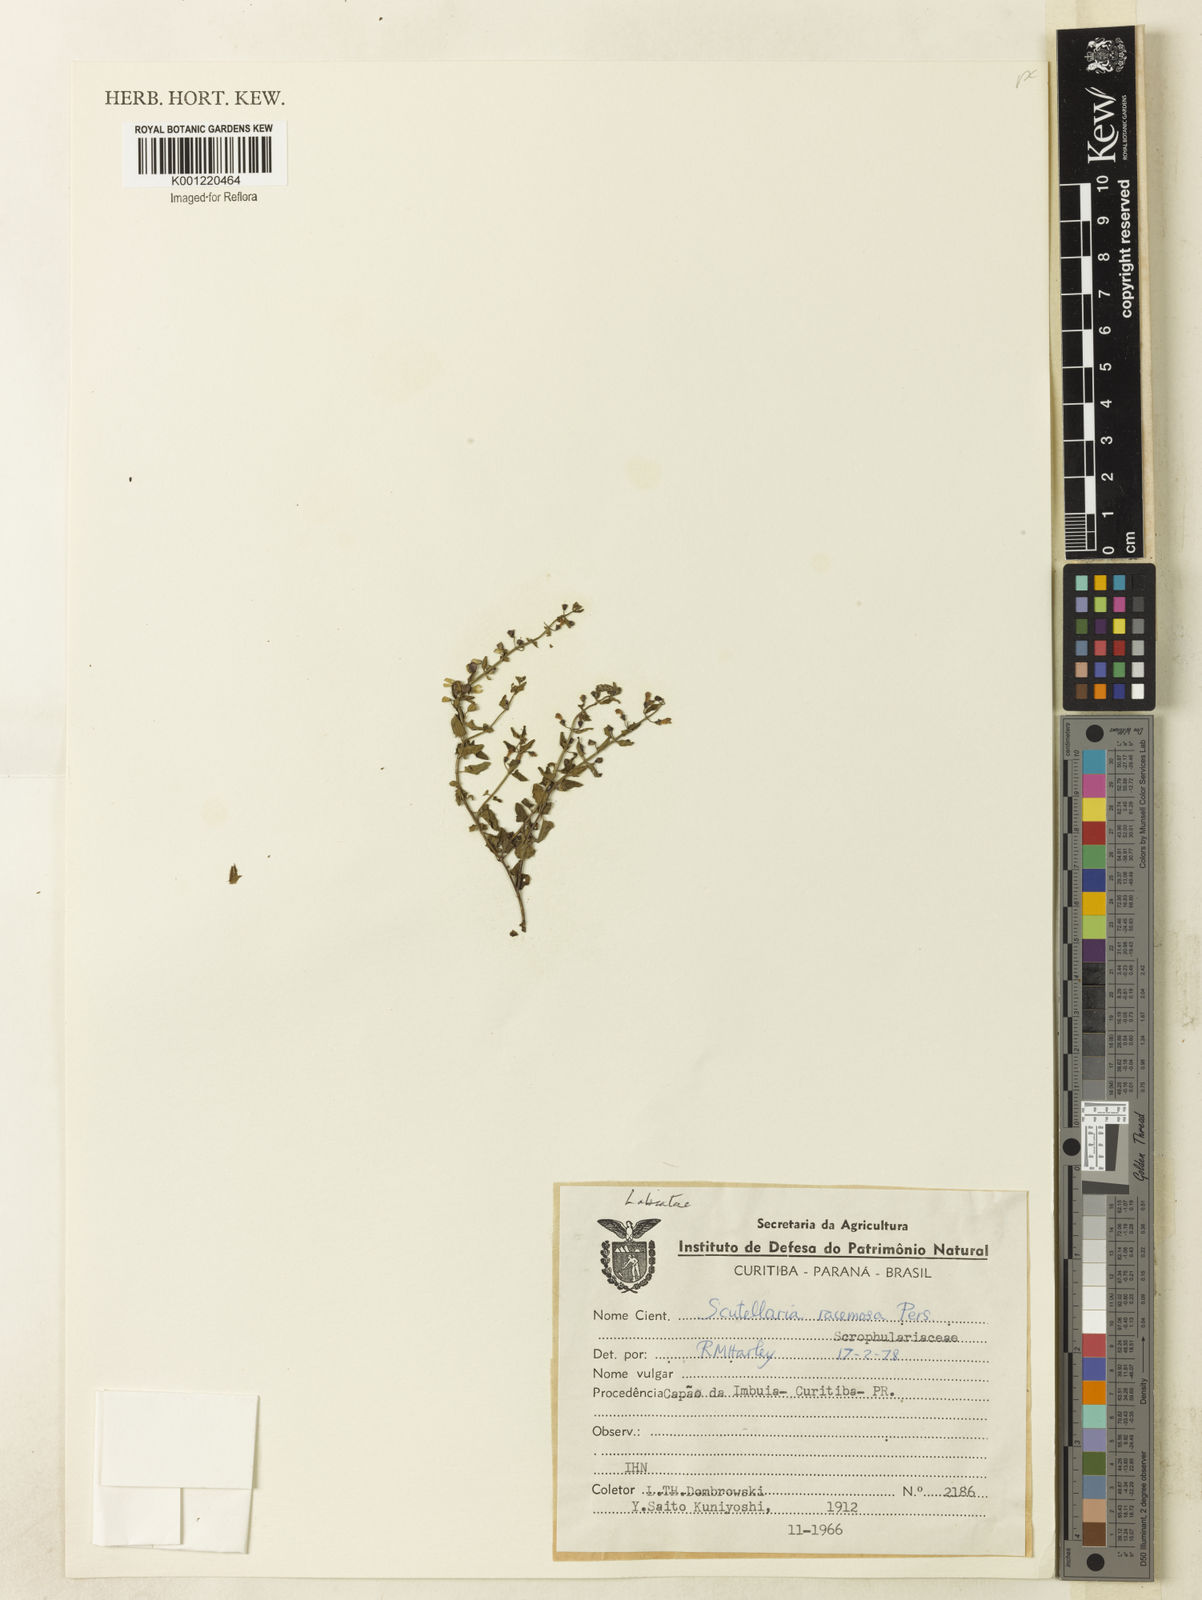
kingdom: Plantae
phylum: Tracheophyta
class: Magnoliopsida
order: Lamiales
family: Lamiaceae
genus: Scutellaria
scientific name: Scutellaria racemosa
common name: South american skullcap
